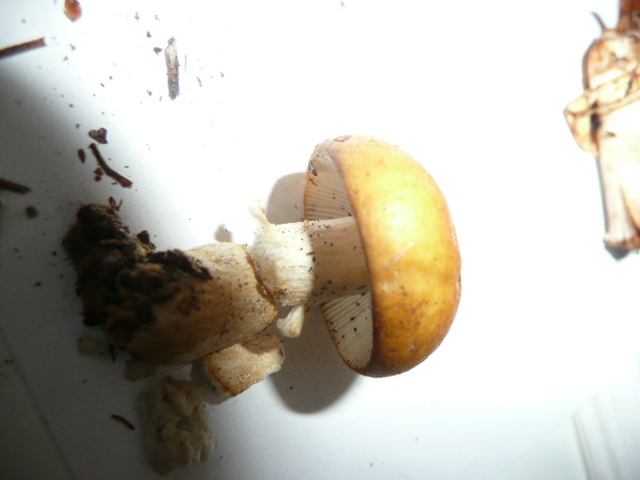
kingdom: Fungi
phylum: Basidiomycota
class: Agaricomycetes
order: Russulales
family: Russulaceae
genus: Russula
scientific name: Russula ochroleuca
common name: okkergul skørhat
